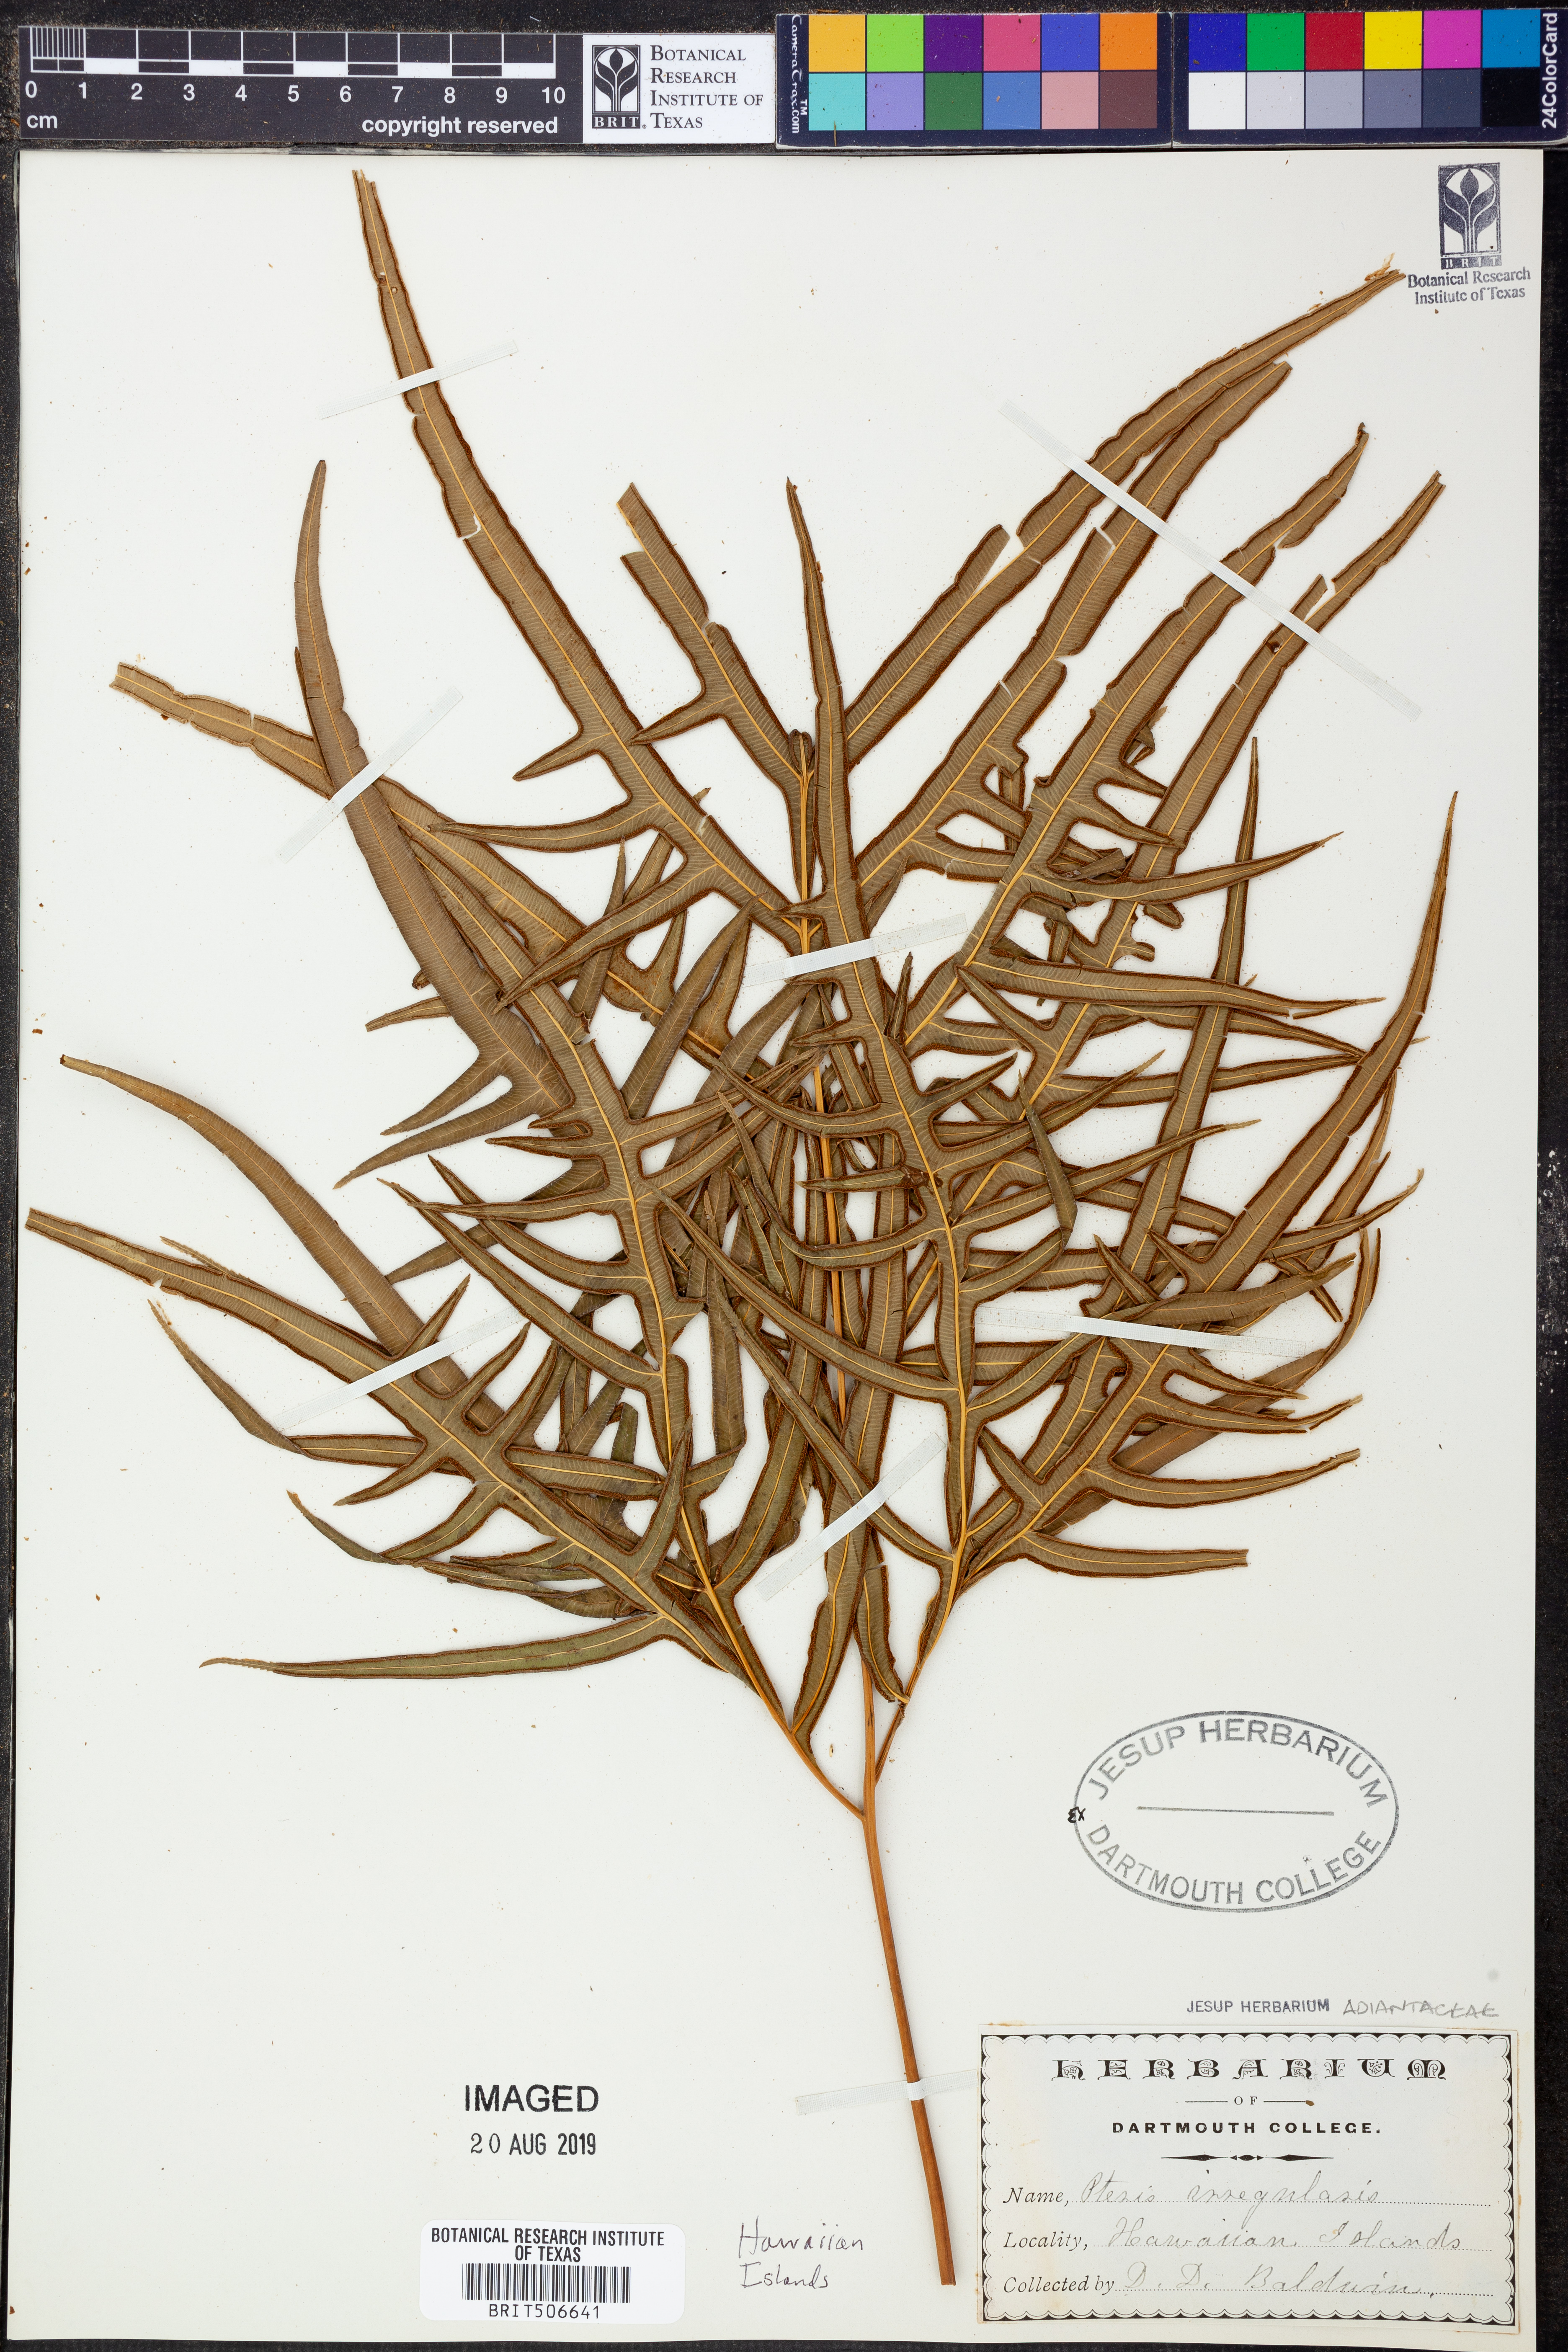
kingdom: Plantae
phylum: Tracheophyta
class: Polypodiopsida
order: Polypodiales
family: Pteridaceae
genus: Pteris
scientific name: Pteris irregularis
